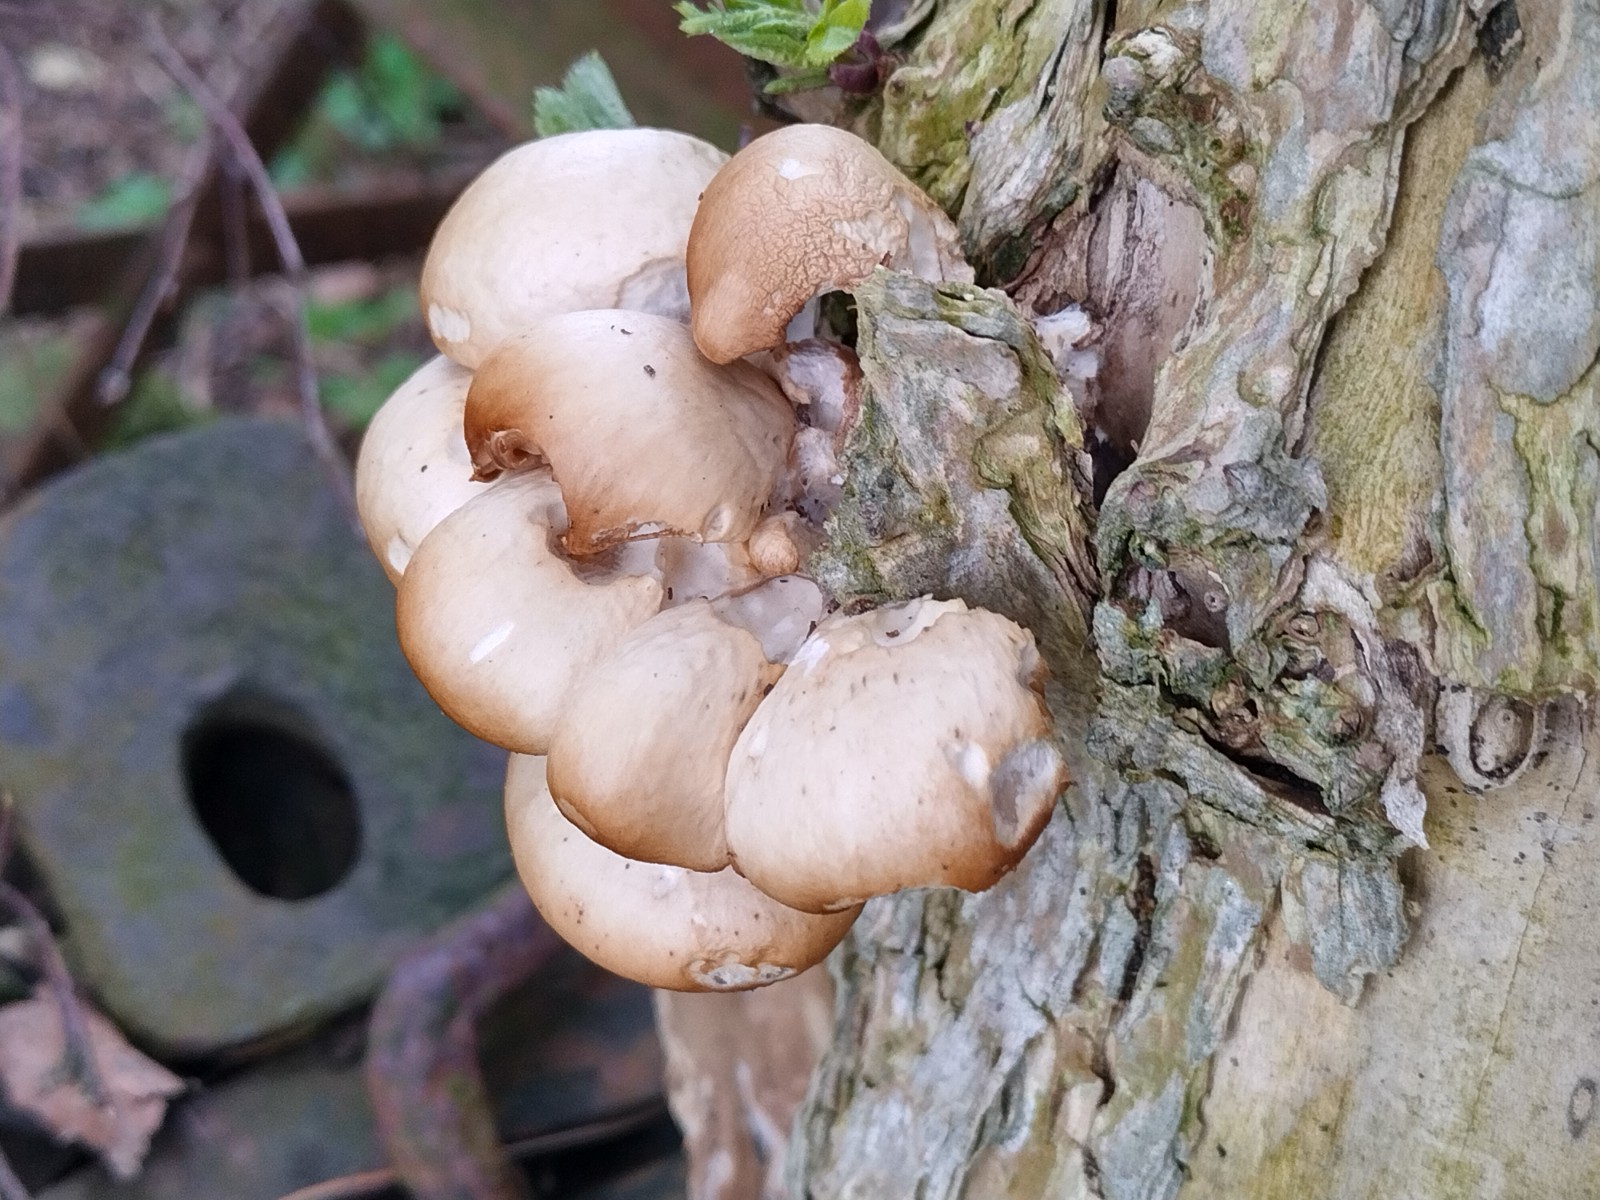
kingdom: Fungi
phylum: Basidiomycota
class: Agaricomycetes
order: Agaricales
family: Pleurotaceae
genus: Pleurotus
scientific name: Pleurotus ostreatus
